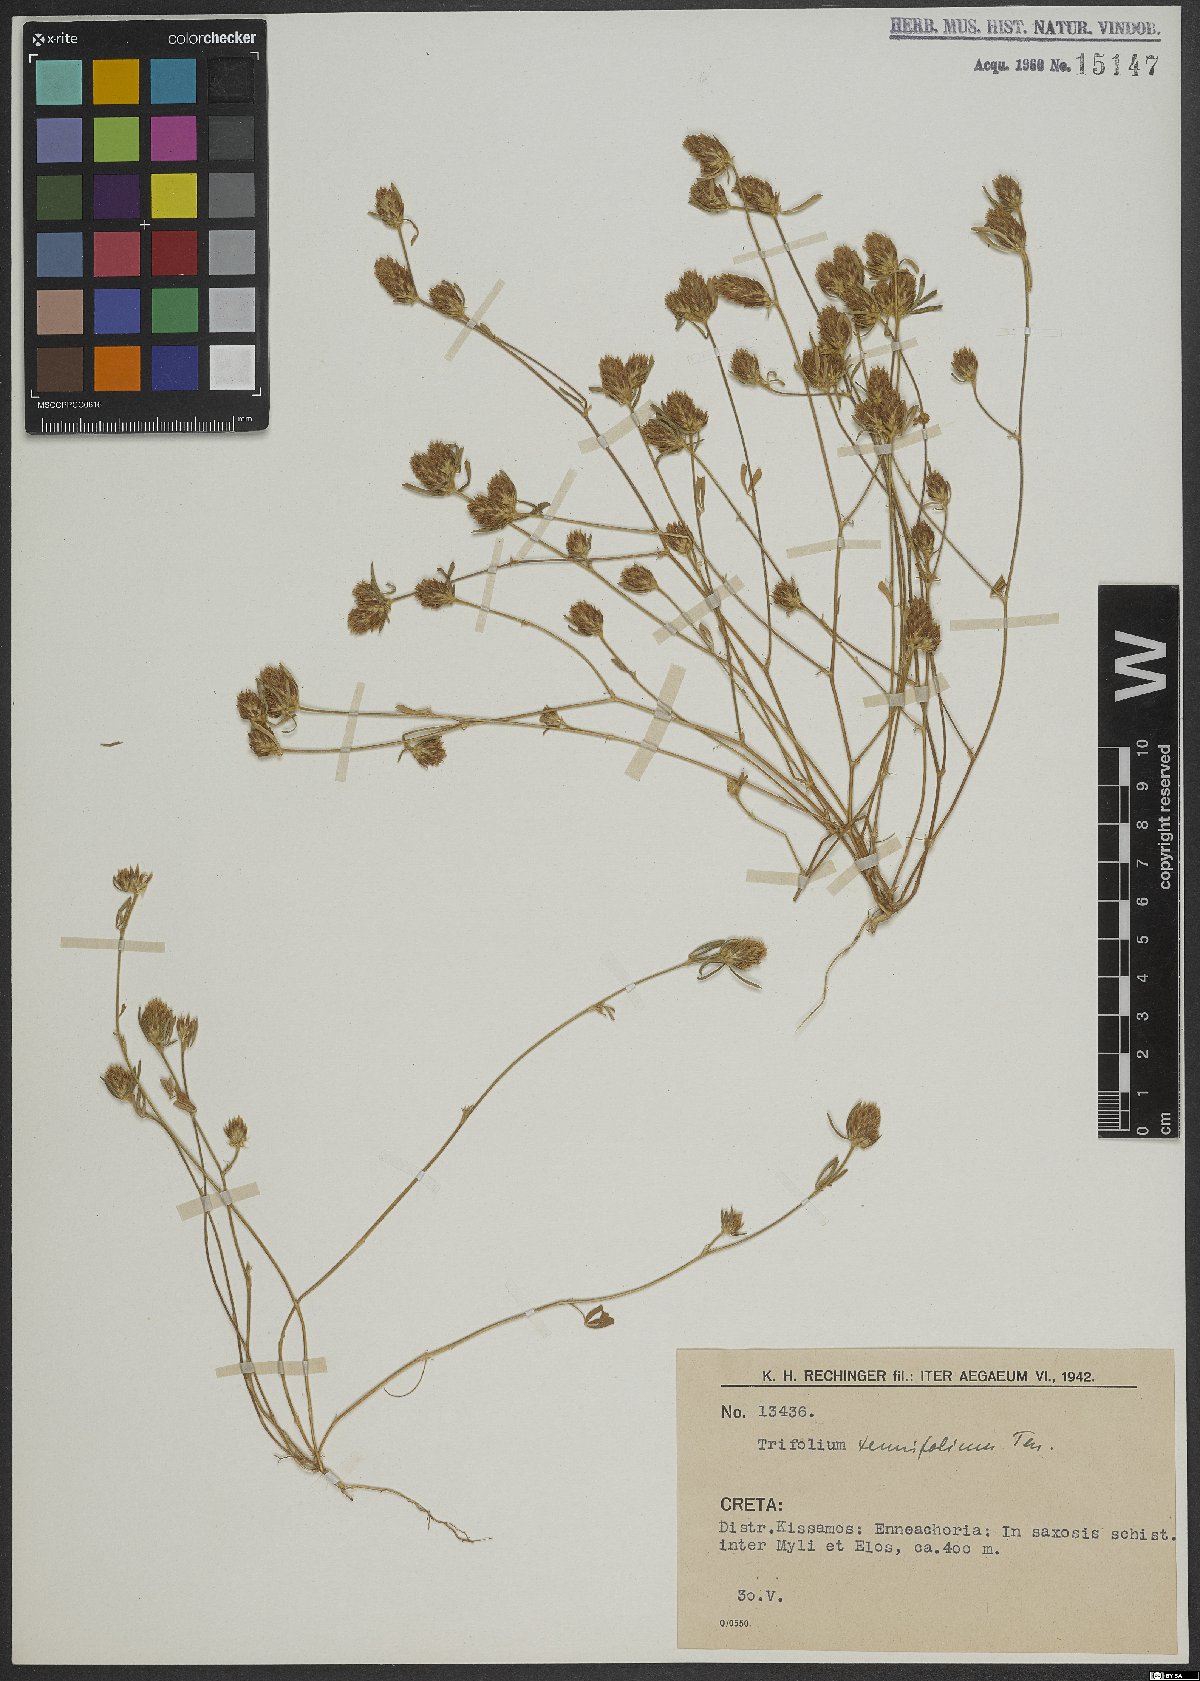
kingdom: Plantae
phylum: Tracheophyta
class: Magnoliopsida
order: Fabales
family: Fabaceae
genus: Trifolium
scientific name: Trifolium tenuifolium
